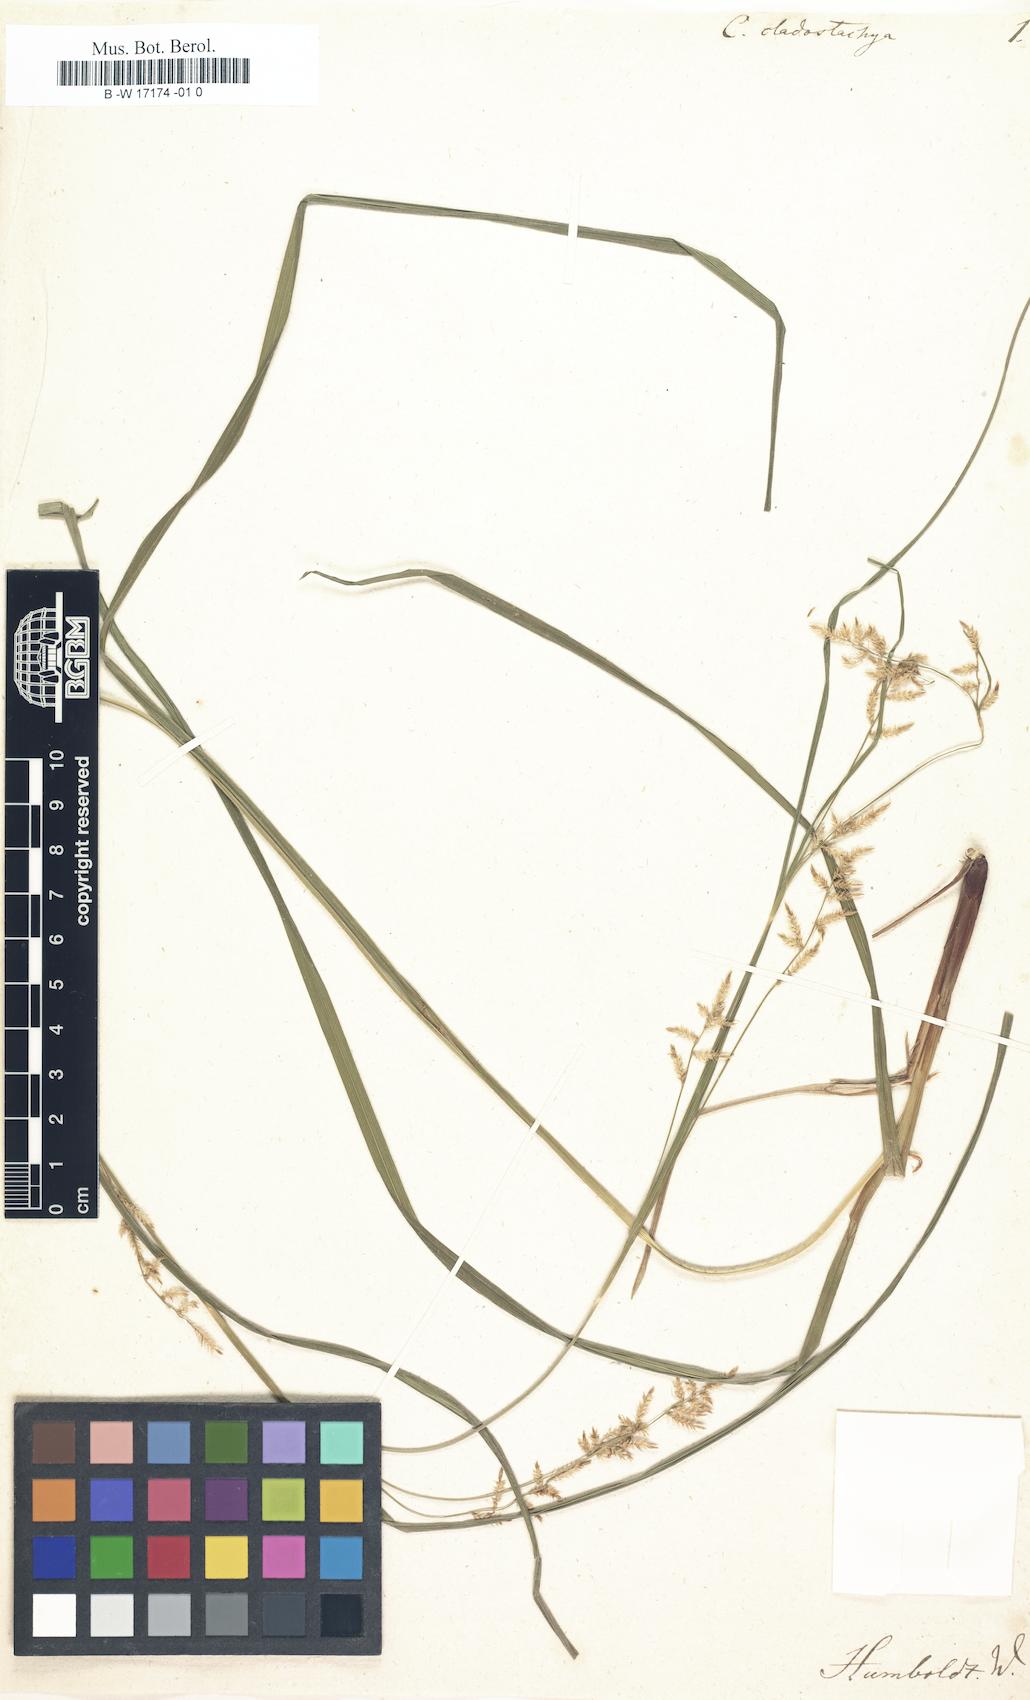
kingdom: Plantae
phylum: Tracheophyta
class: Liliopsida
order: Poales
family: Cyperaceae
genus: Carex
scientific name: Carex polystachya
